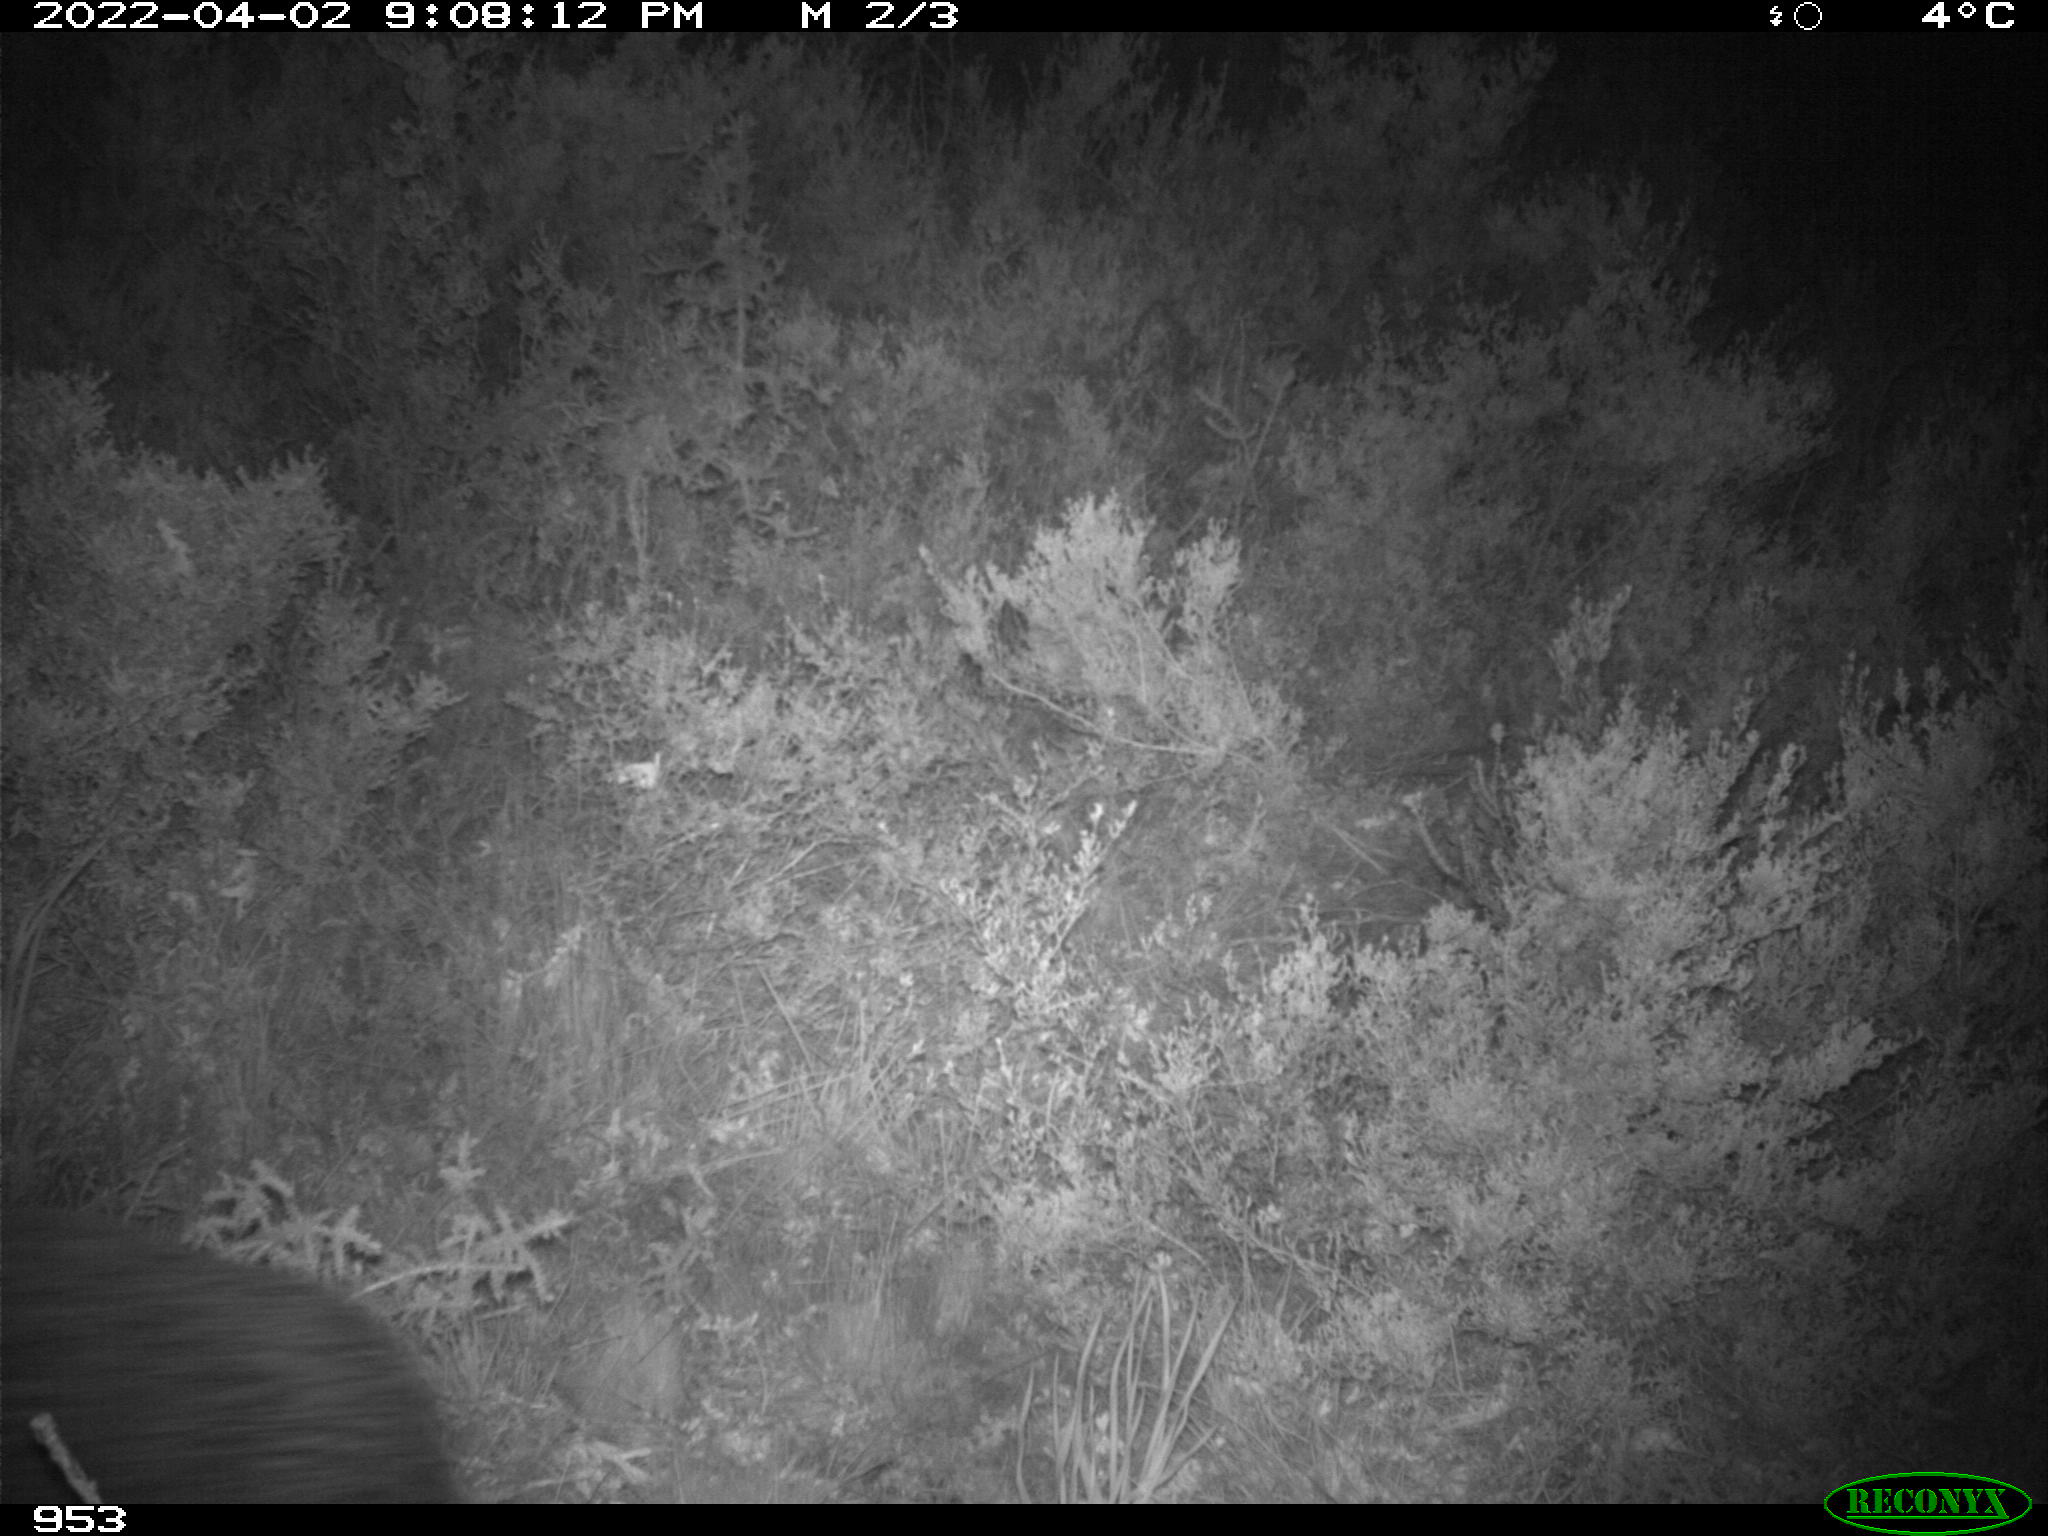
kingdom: Animalia
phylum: Chordata
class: Mammalia
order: Artiodactyla
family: Suidae
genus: Sus
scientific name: Sus scrofa
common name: Wild boar
